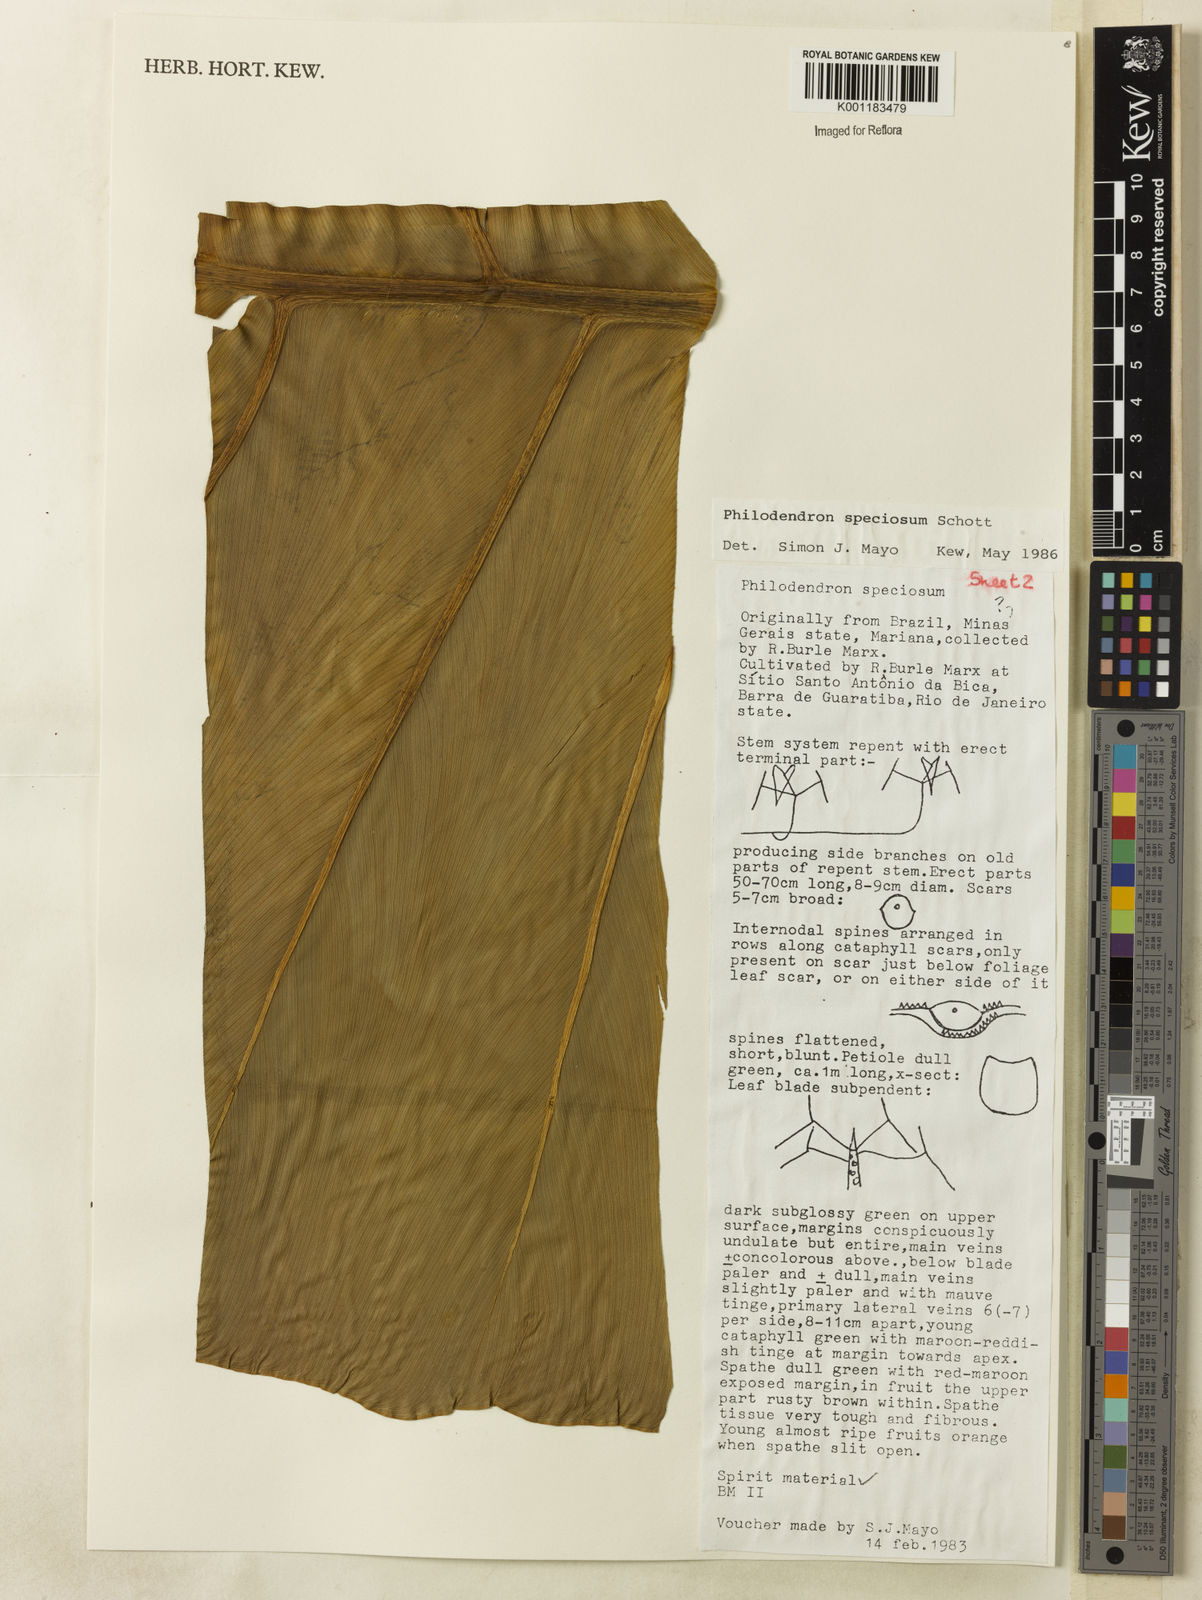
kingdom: Plantae
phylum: Tracheophyta
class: Liliopsida
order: Alismatales
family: Araceae
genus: Thaumatophyllum
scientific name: Thaumatophyllum speciosum
